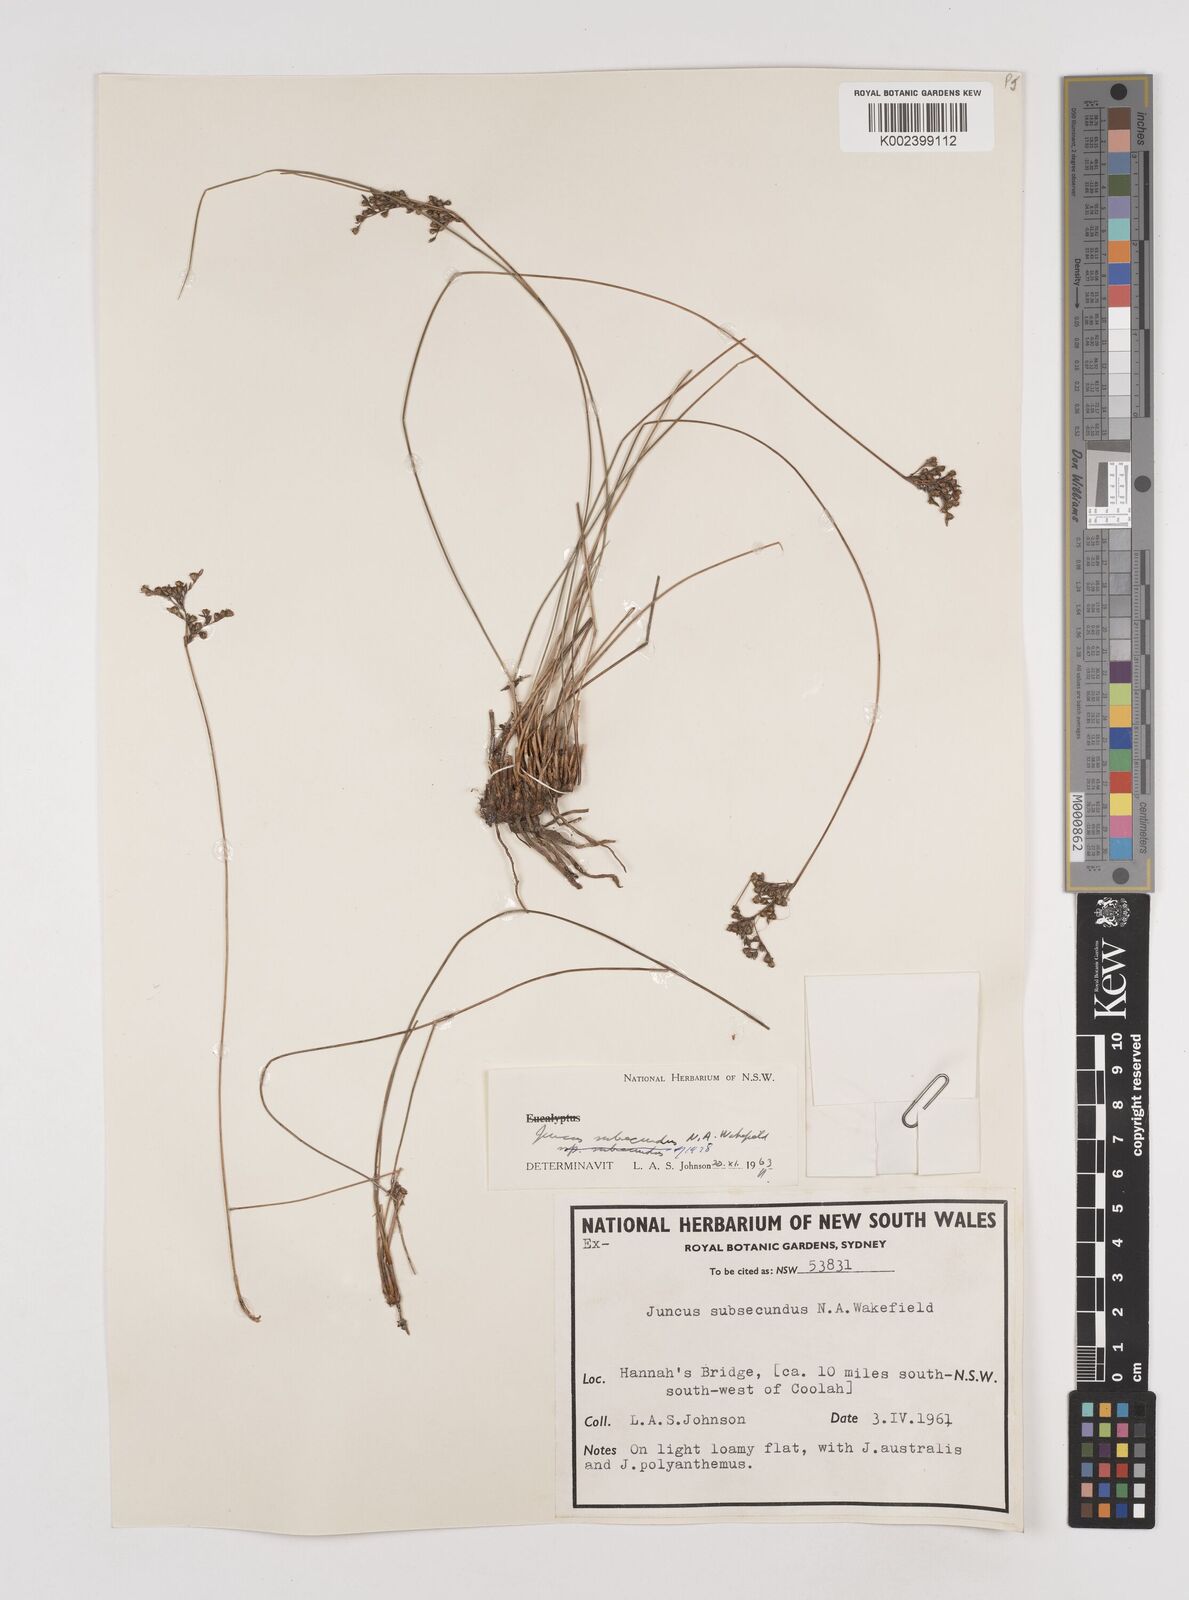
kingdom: Plantae
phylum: Tracheophyta
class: Liliopsida
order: Poales
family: Juncaceae
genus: Juncus
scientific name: Juncus subsecundus
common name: Fingered rush
